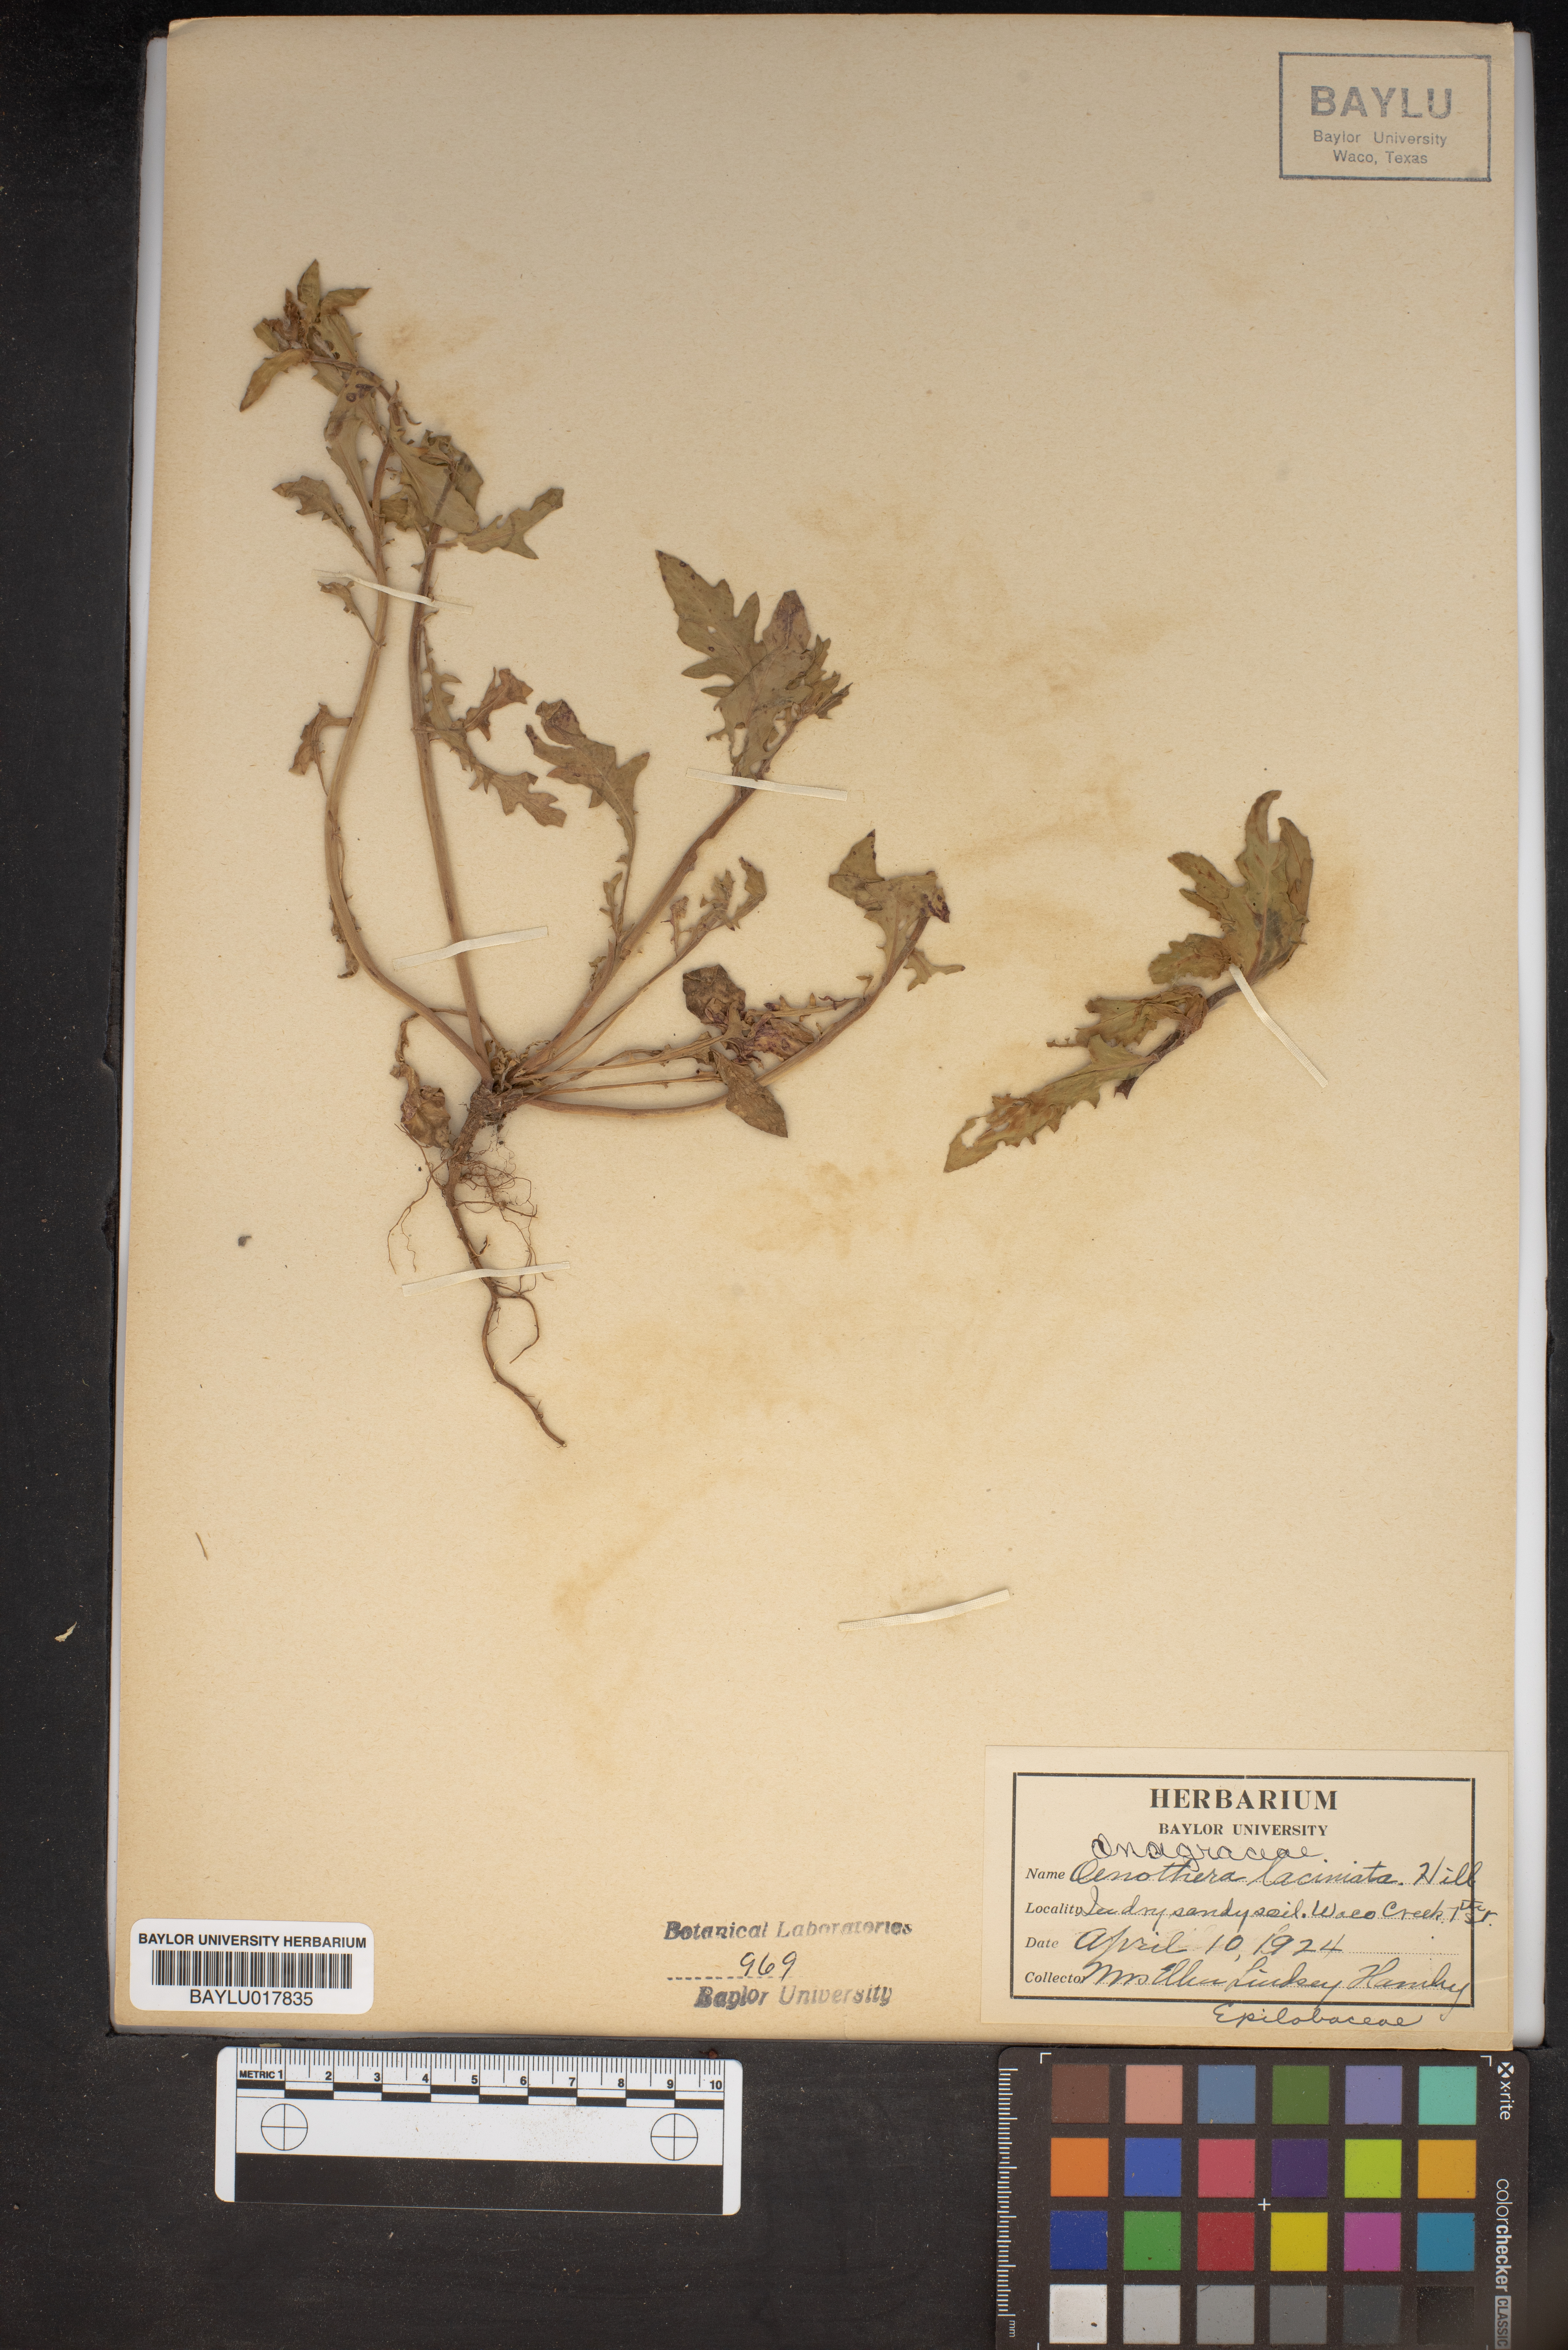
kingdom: Plantae
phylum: Tracheophyta
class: Magnoliopsida
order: Myrtales
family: Onagraceae
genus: Oenothera
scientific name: Oenothera laciniata
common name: Cut-leaved evening-primrose
